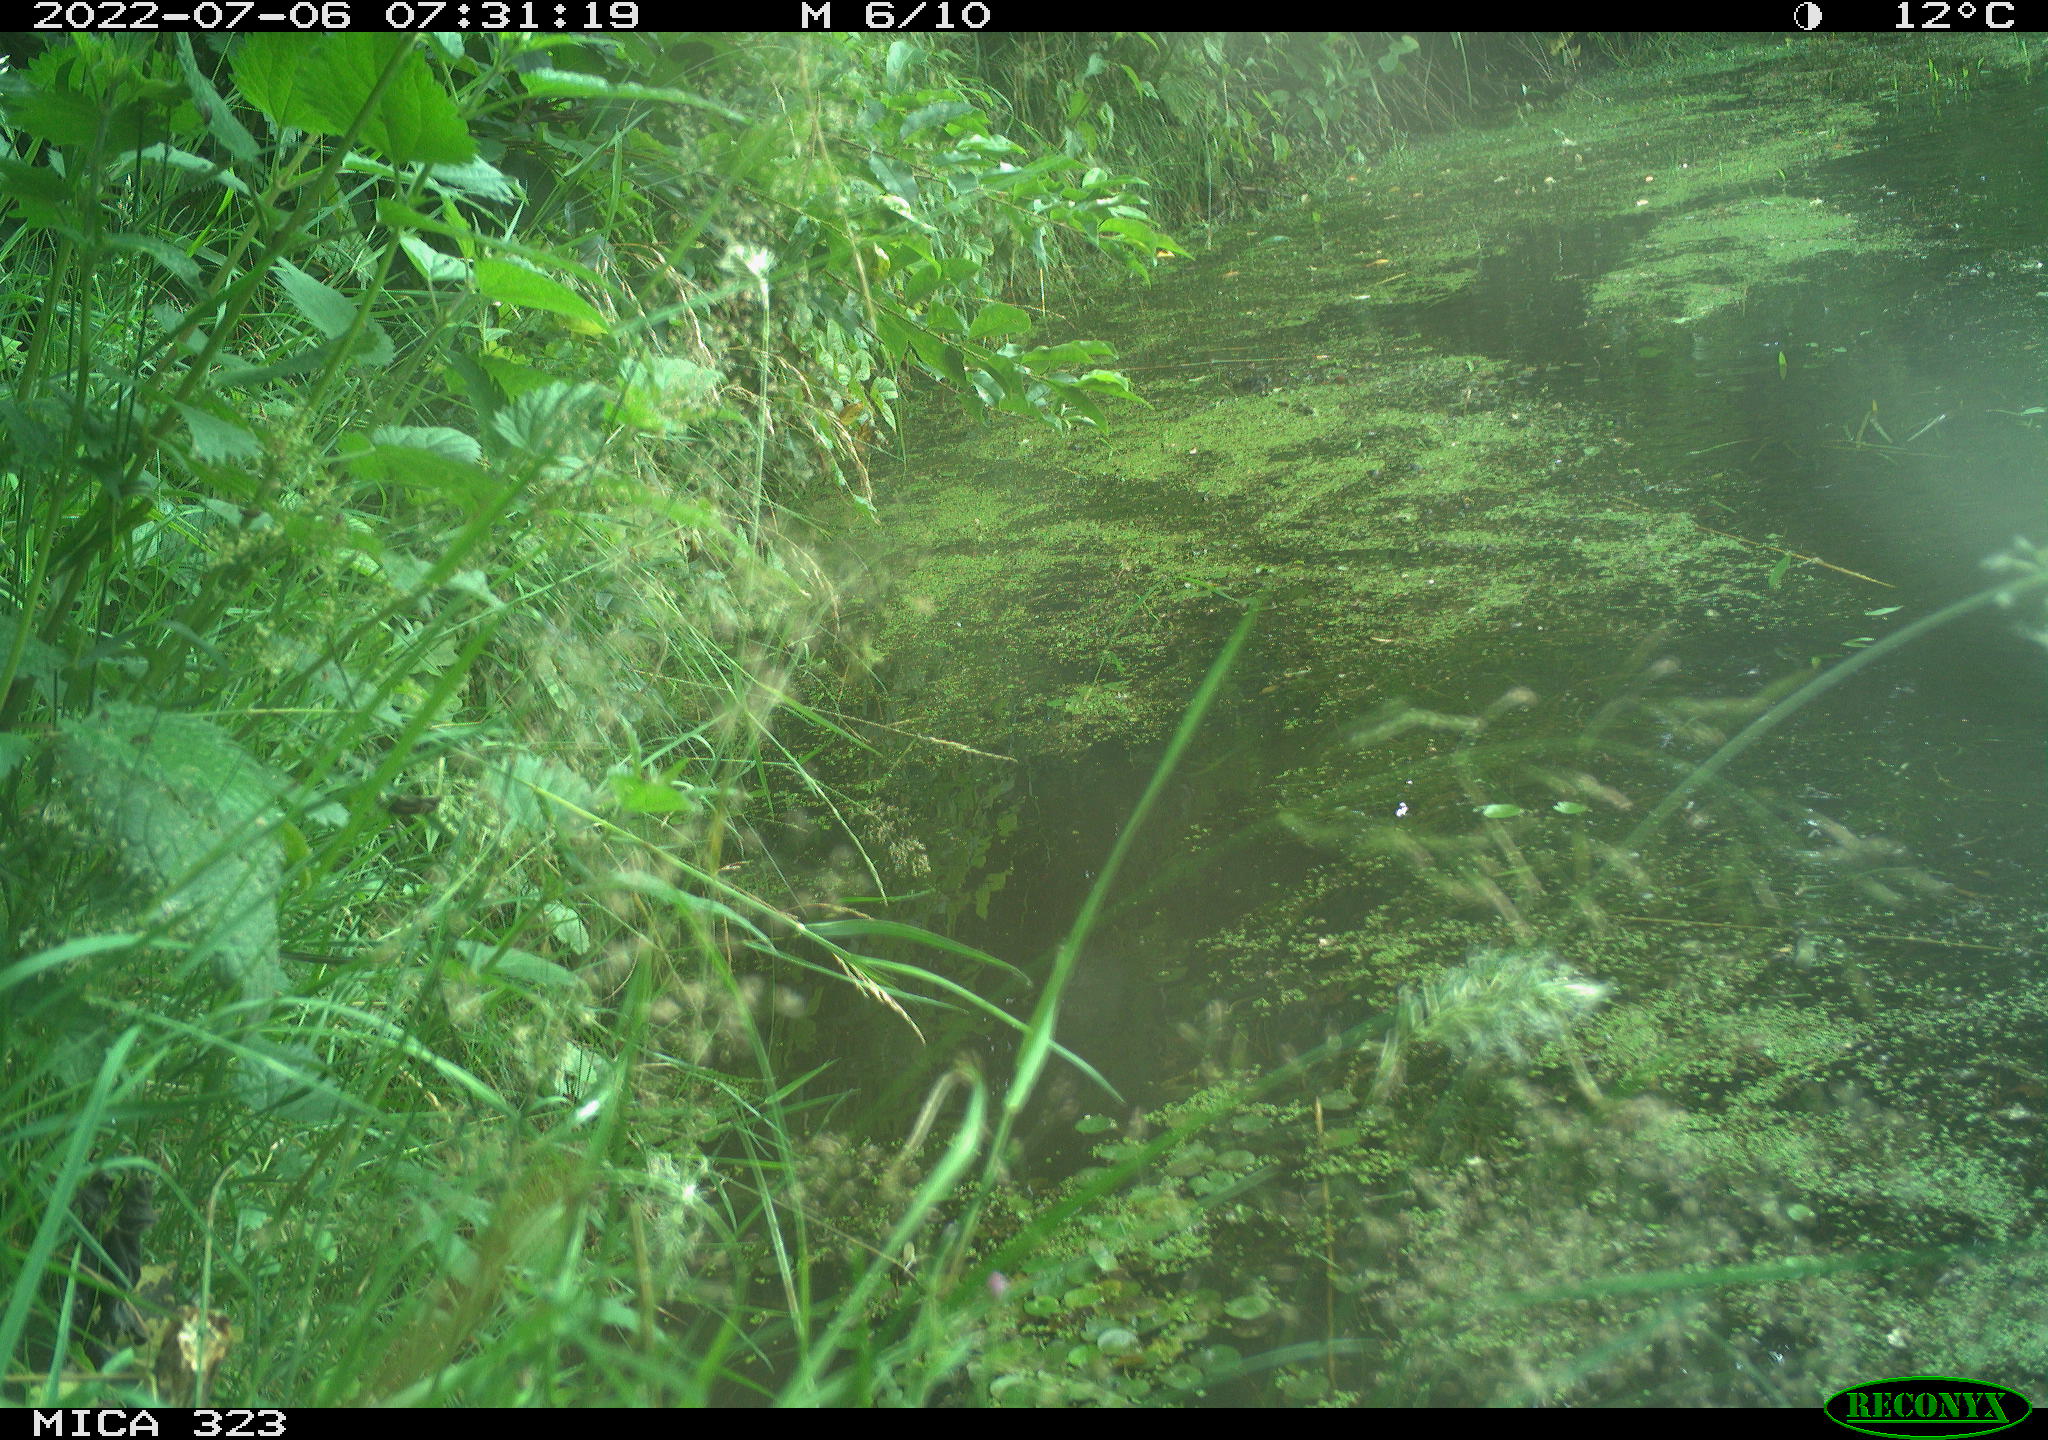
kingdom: Animalia
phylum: Chordata
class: Aves
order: Anseriformes
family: Anatidae
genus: Anas
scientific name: Anas platyrhynchos
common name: Mallard
